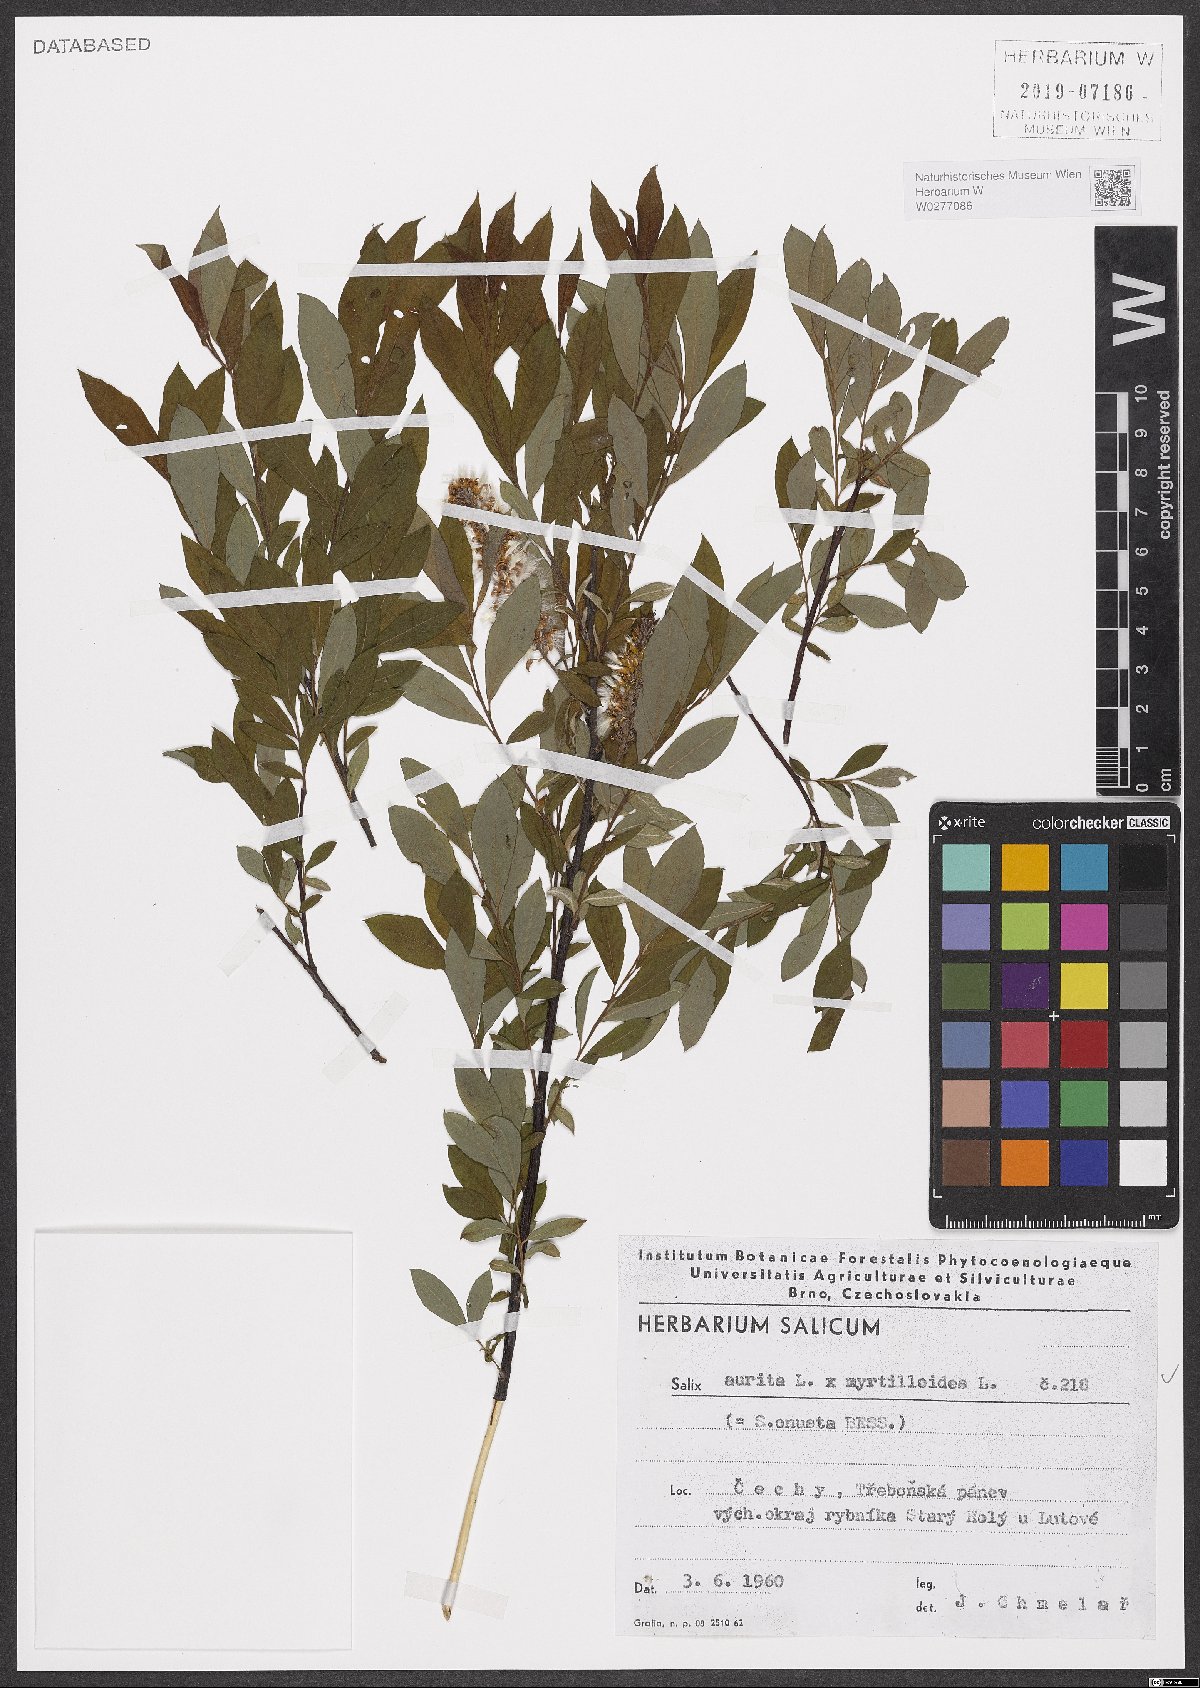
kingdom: Plantae
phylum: Tracheophyta
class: Magnoliopsida
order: Malpighiales
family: Salicaceae
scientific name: Salicaceae
